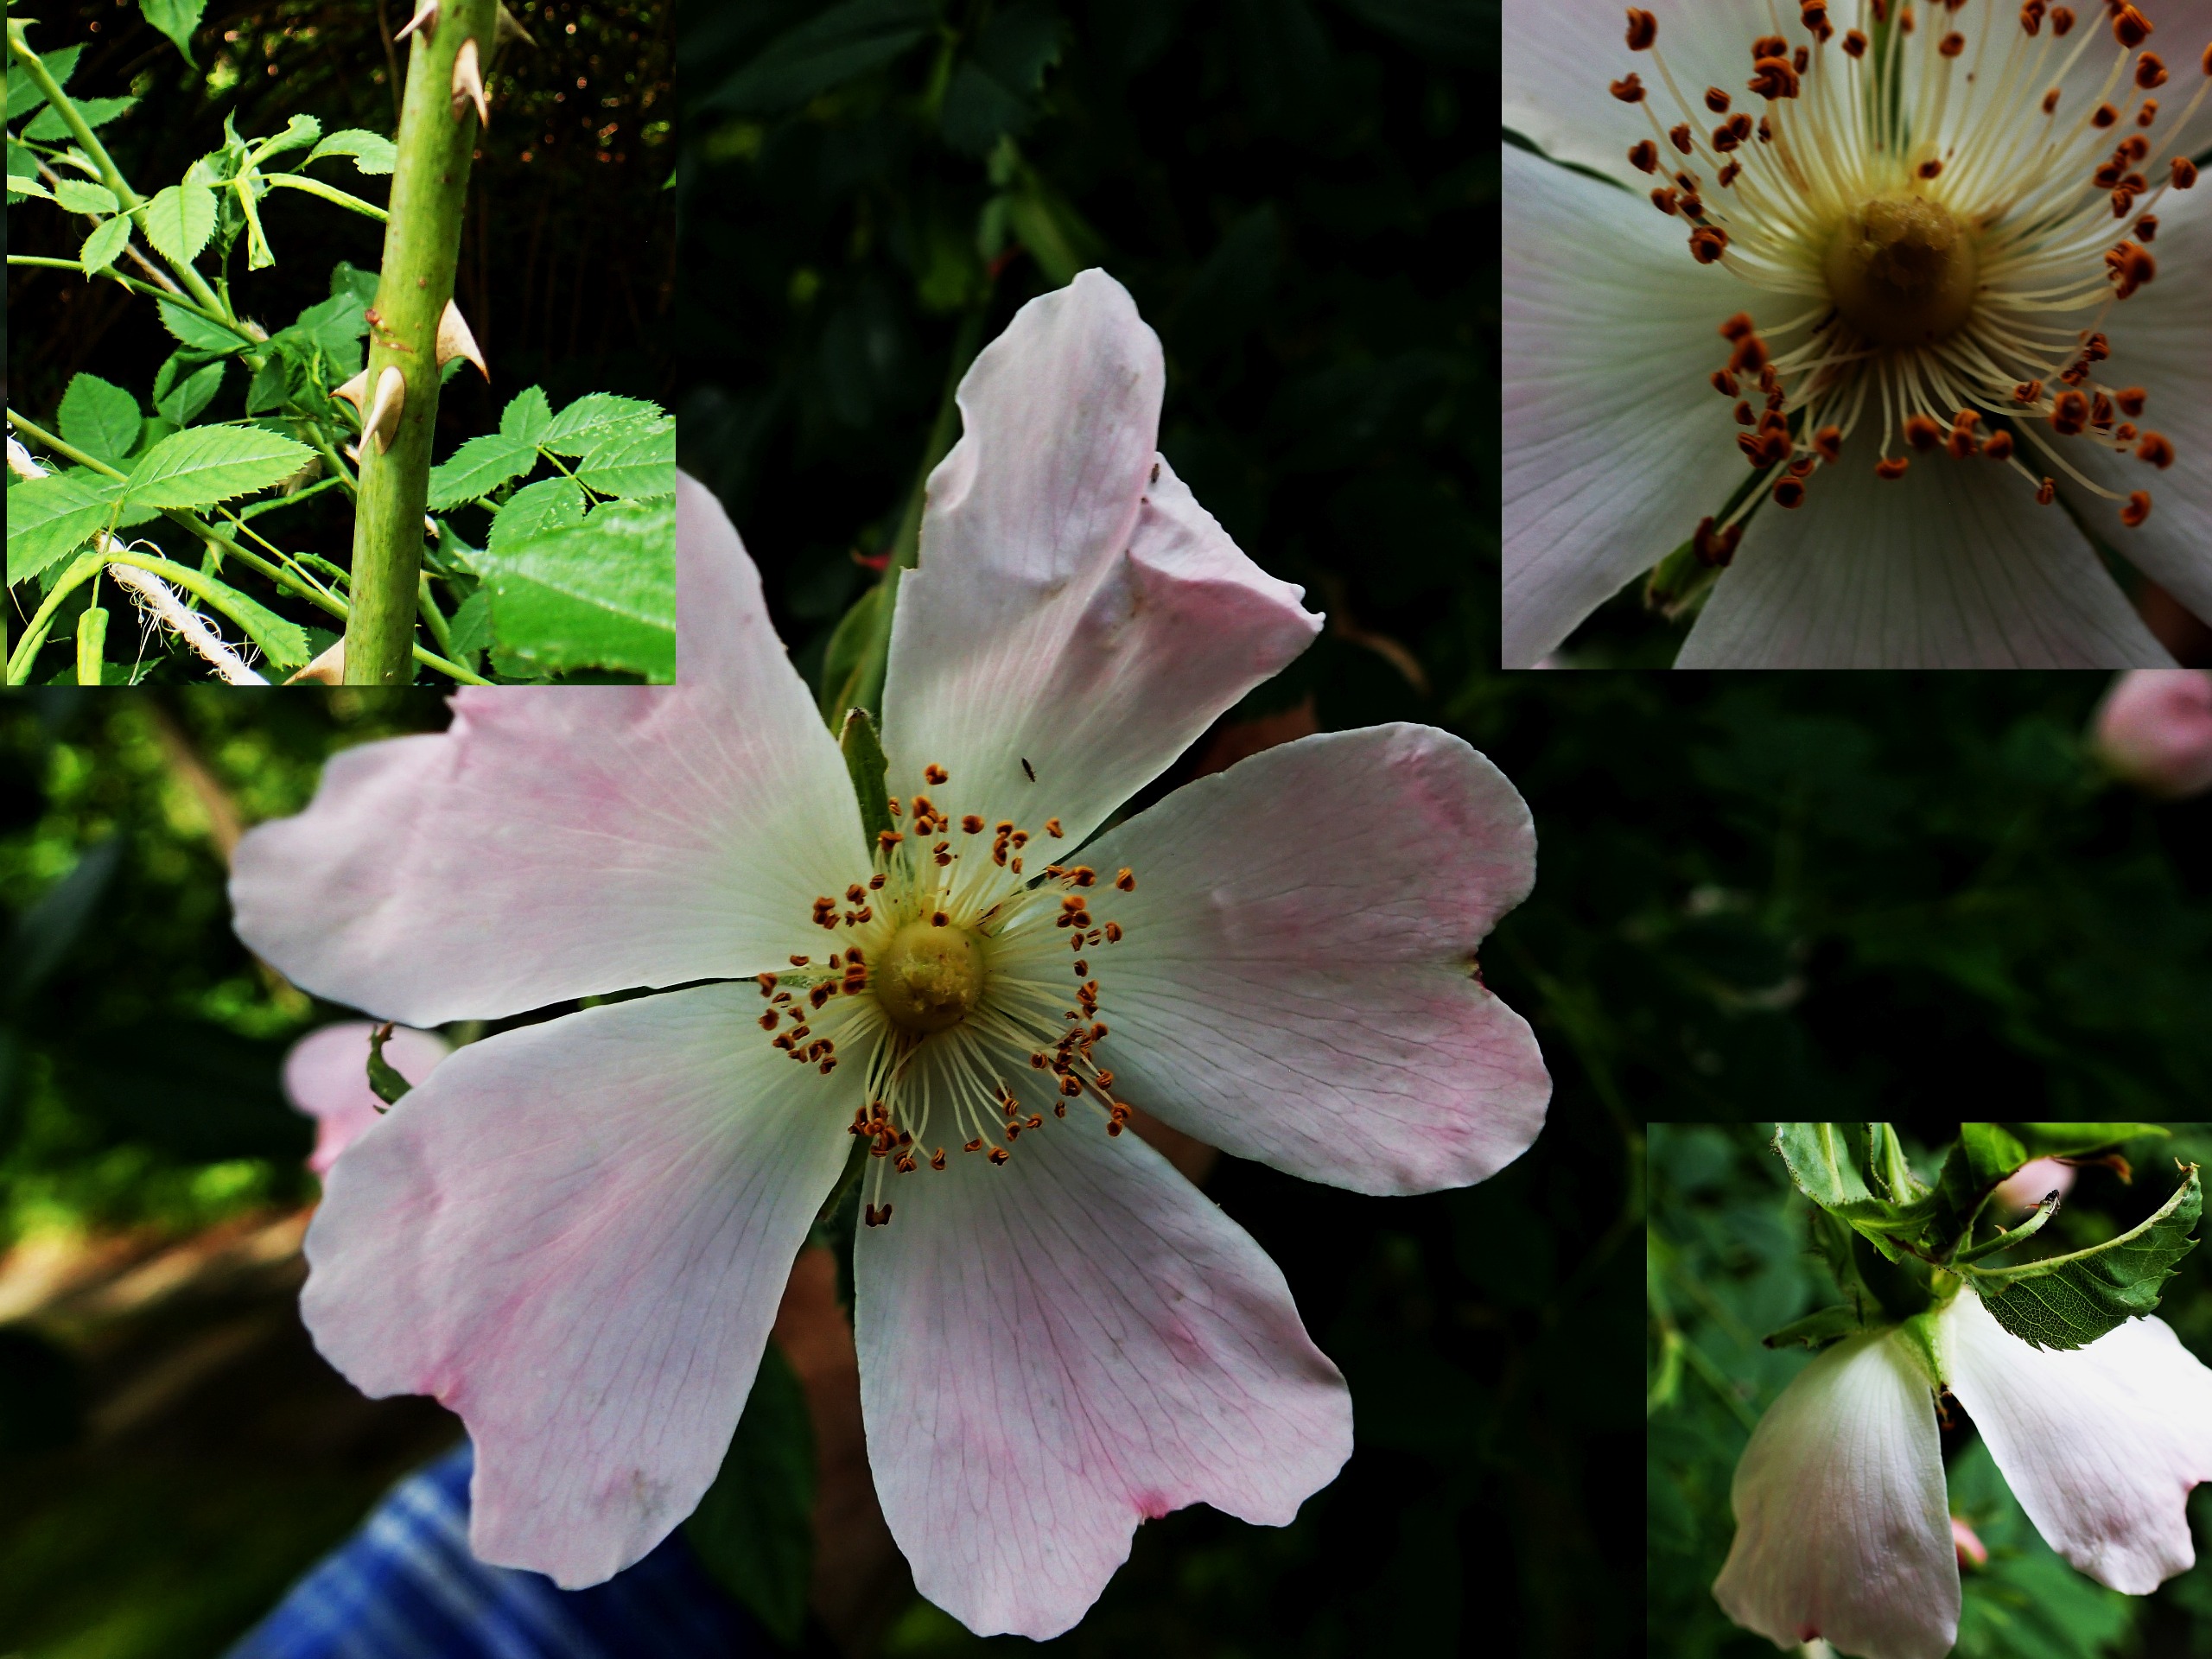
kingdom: Plantae
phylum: Tracheophyta
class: Magnoliopsida
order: Rosales
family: Rosaceae
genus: Rosa
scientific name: Rosa canina
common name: Glat hunde-rose
